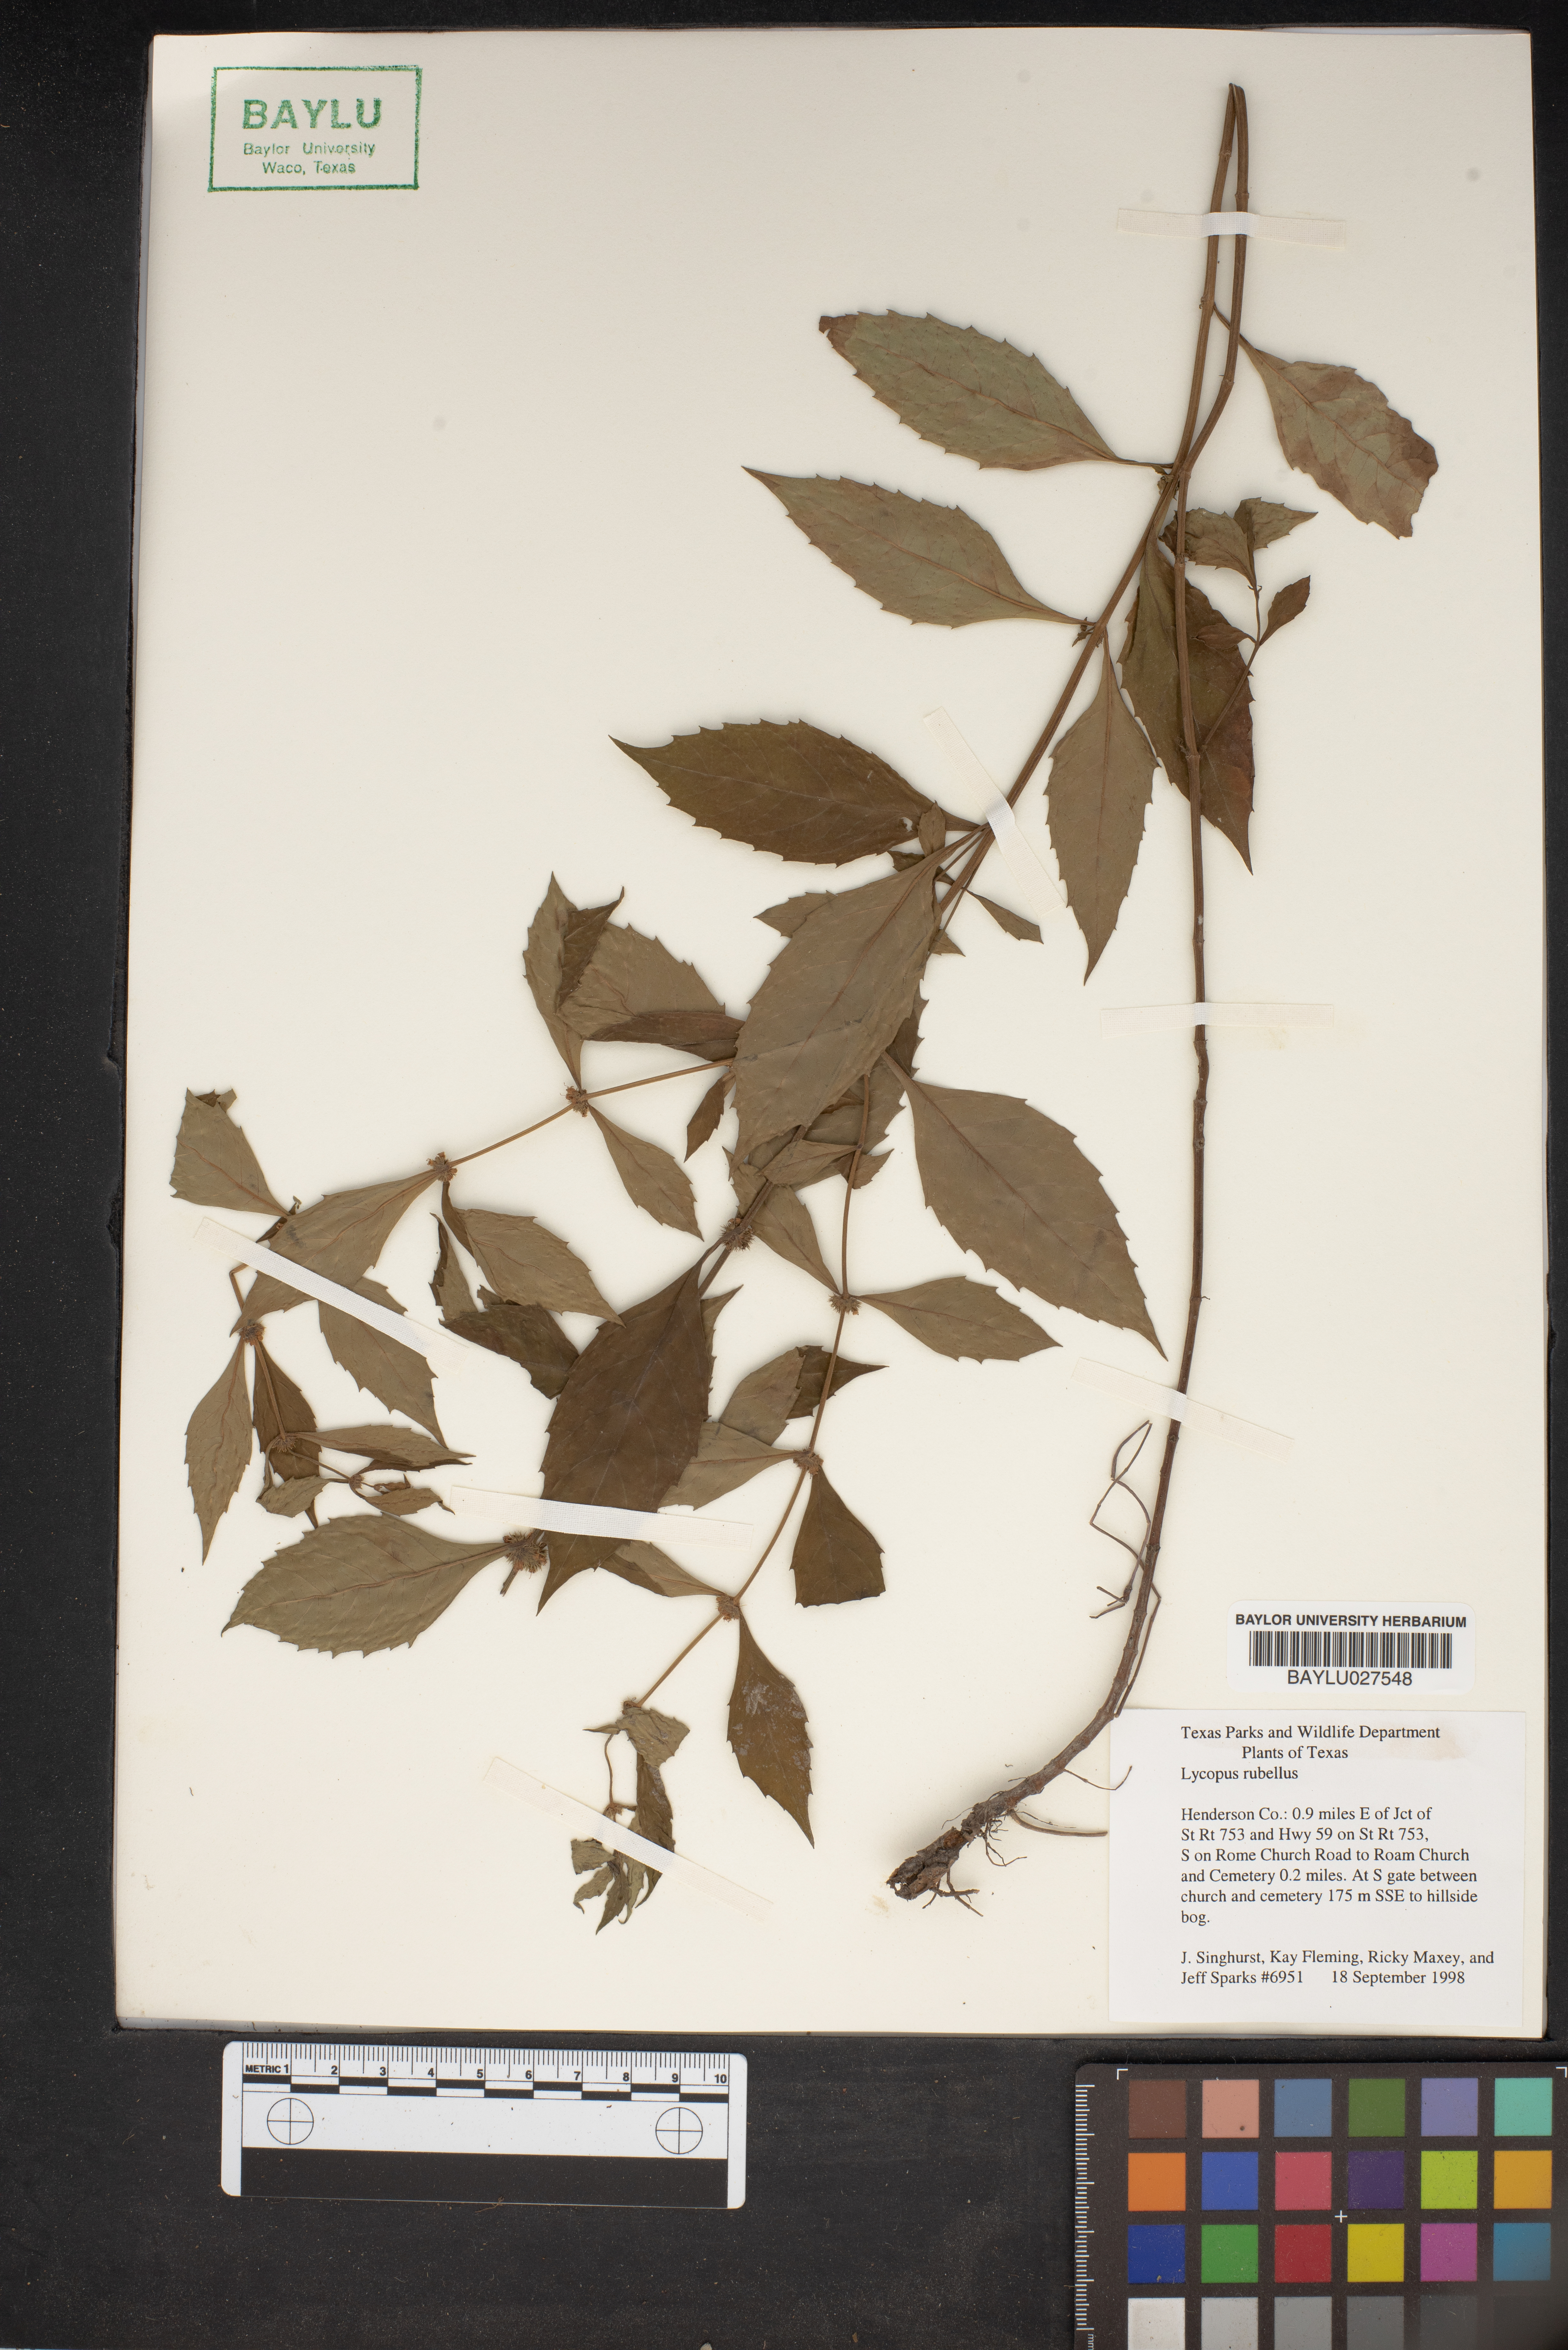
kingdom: Plantae
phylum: Tracheophyta
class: Magnoliopsida
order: Lamiales
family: Lamiaceae
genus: Lycopus
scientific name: Lycopus rubellus
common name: Stalked bugleweed
